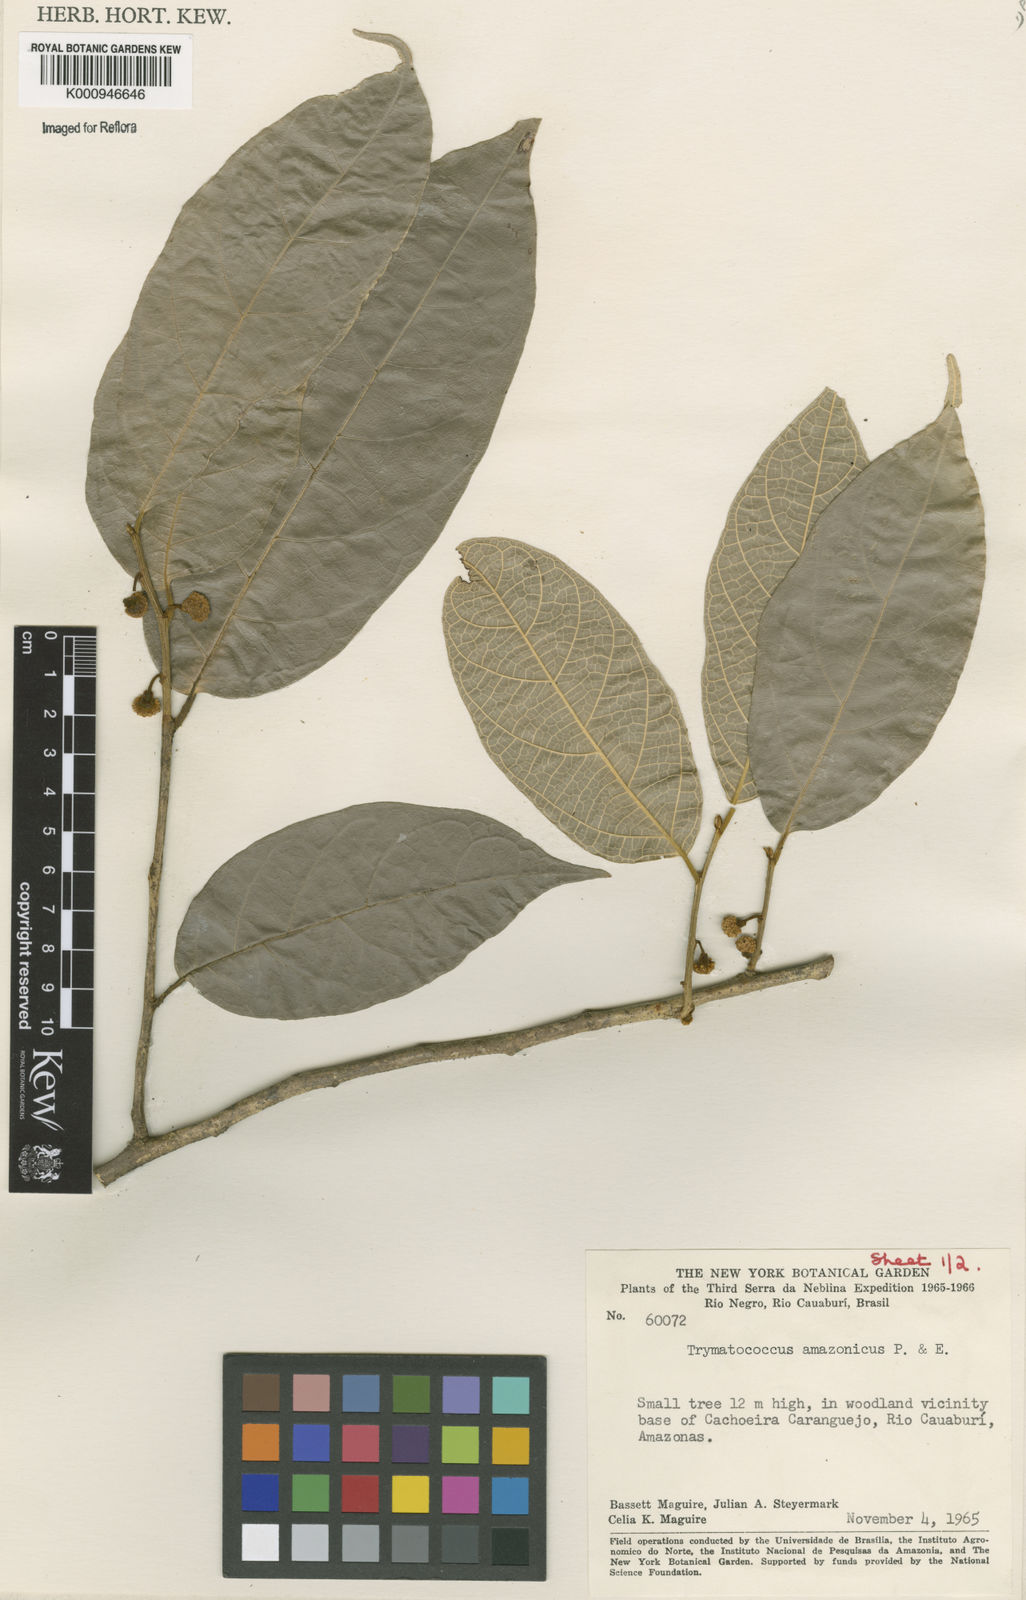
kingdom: Plantae
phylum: Tracheophyta
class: Magnoliopsida
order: Rosales
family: Moraceae
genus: Brosimum
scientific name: Brosimum amazonicum
